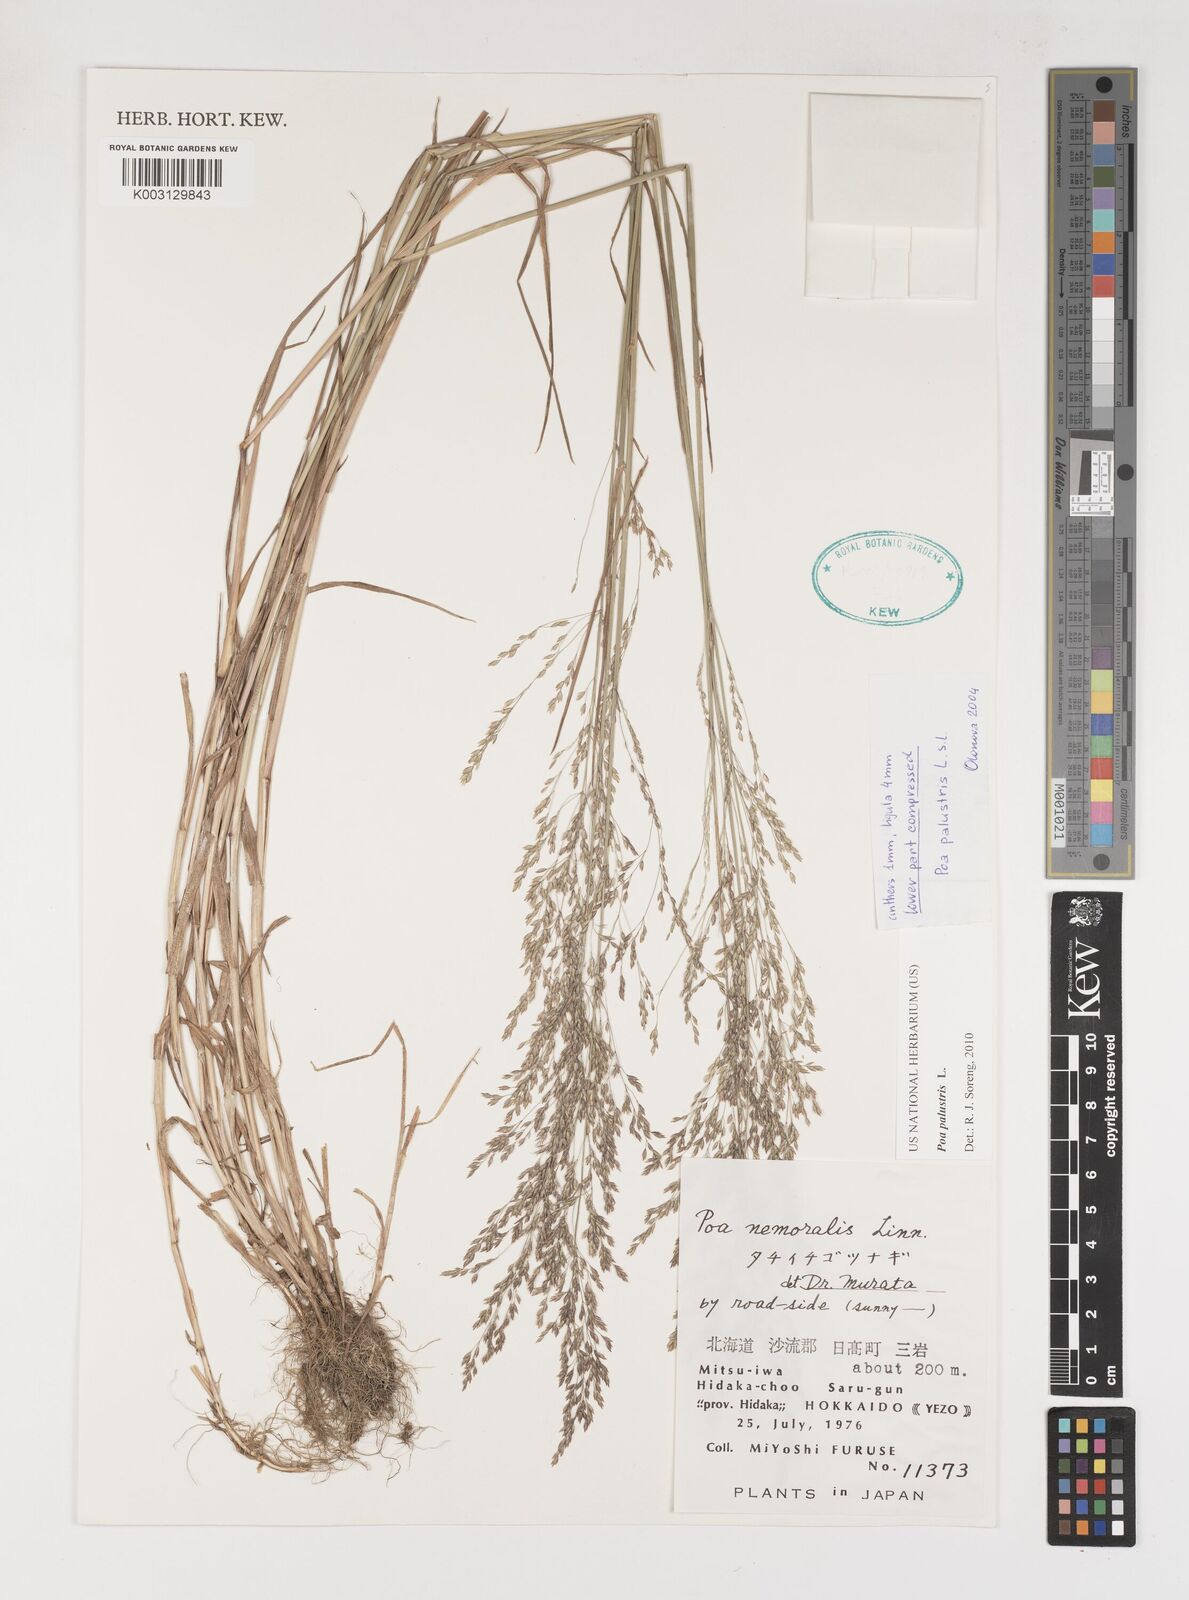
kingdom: Plantae
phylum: Tracheophyta
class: Liliopsida
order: Poales
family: Poaceae
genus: Poa
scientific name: Poa palustris
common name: Swamp meadow-grass
